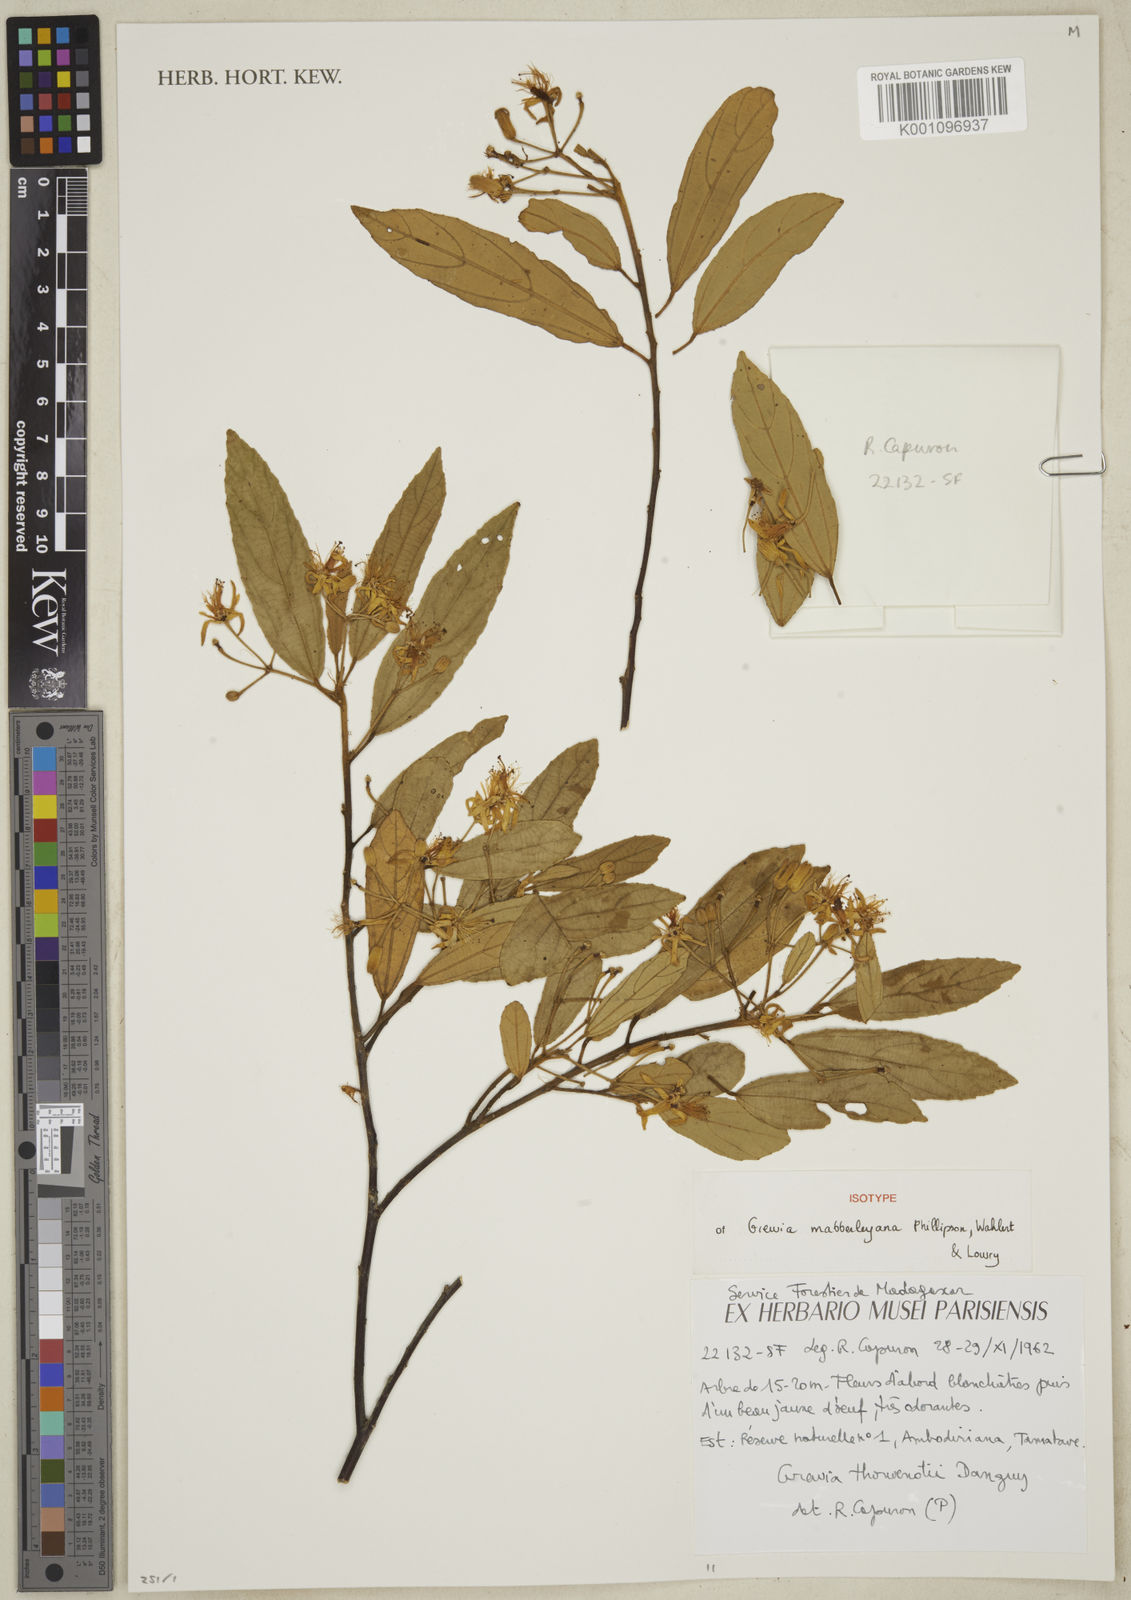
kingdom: Plantae
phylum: Tracheophyta
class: Magnoliopsida
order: Malvales
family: Malvaceae
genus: Grewia
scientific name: Grewia mabberleyana
